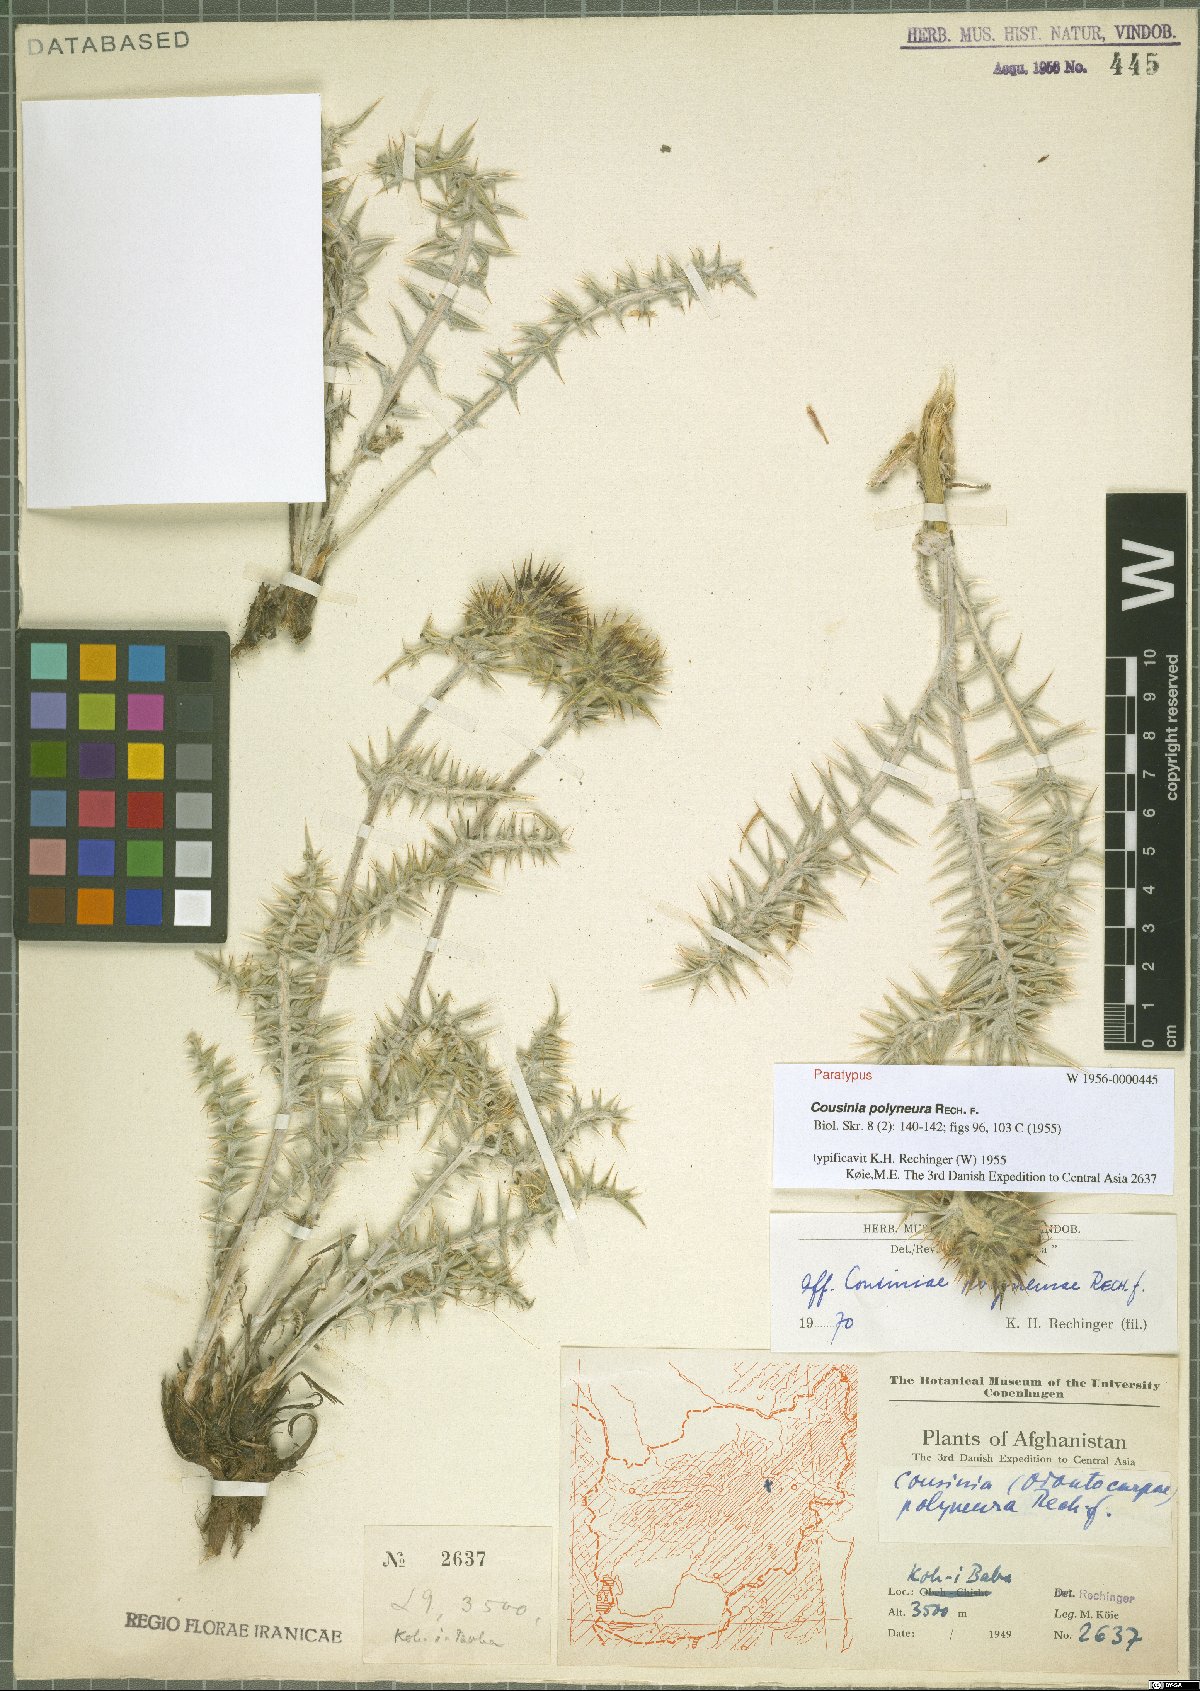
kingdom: Plantae
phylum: Tracheophyta
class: Magnoliopsida
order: Asterales
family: Asteraceae
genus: Cousinia
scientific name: Cousinia polyneura
